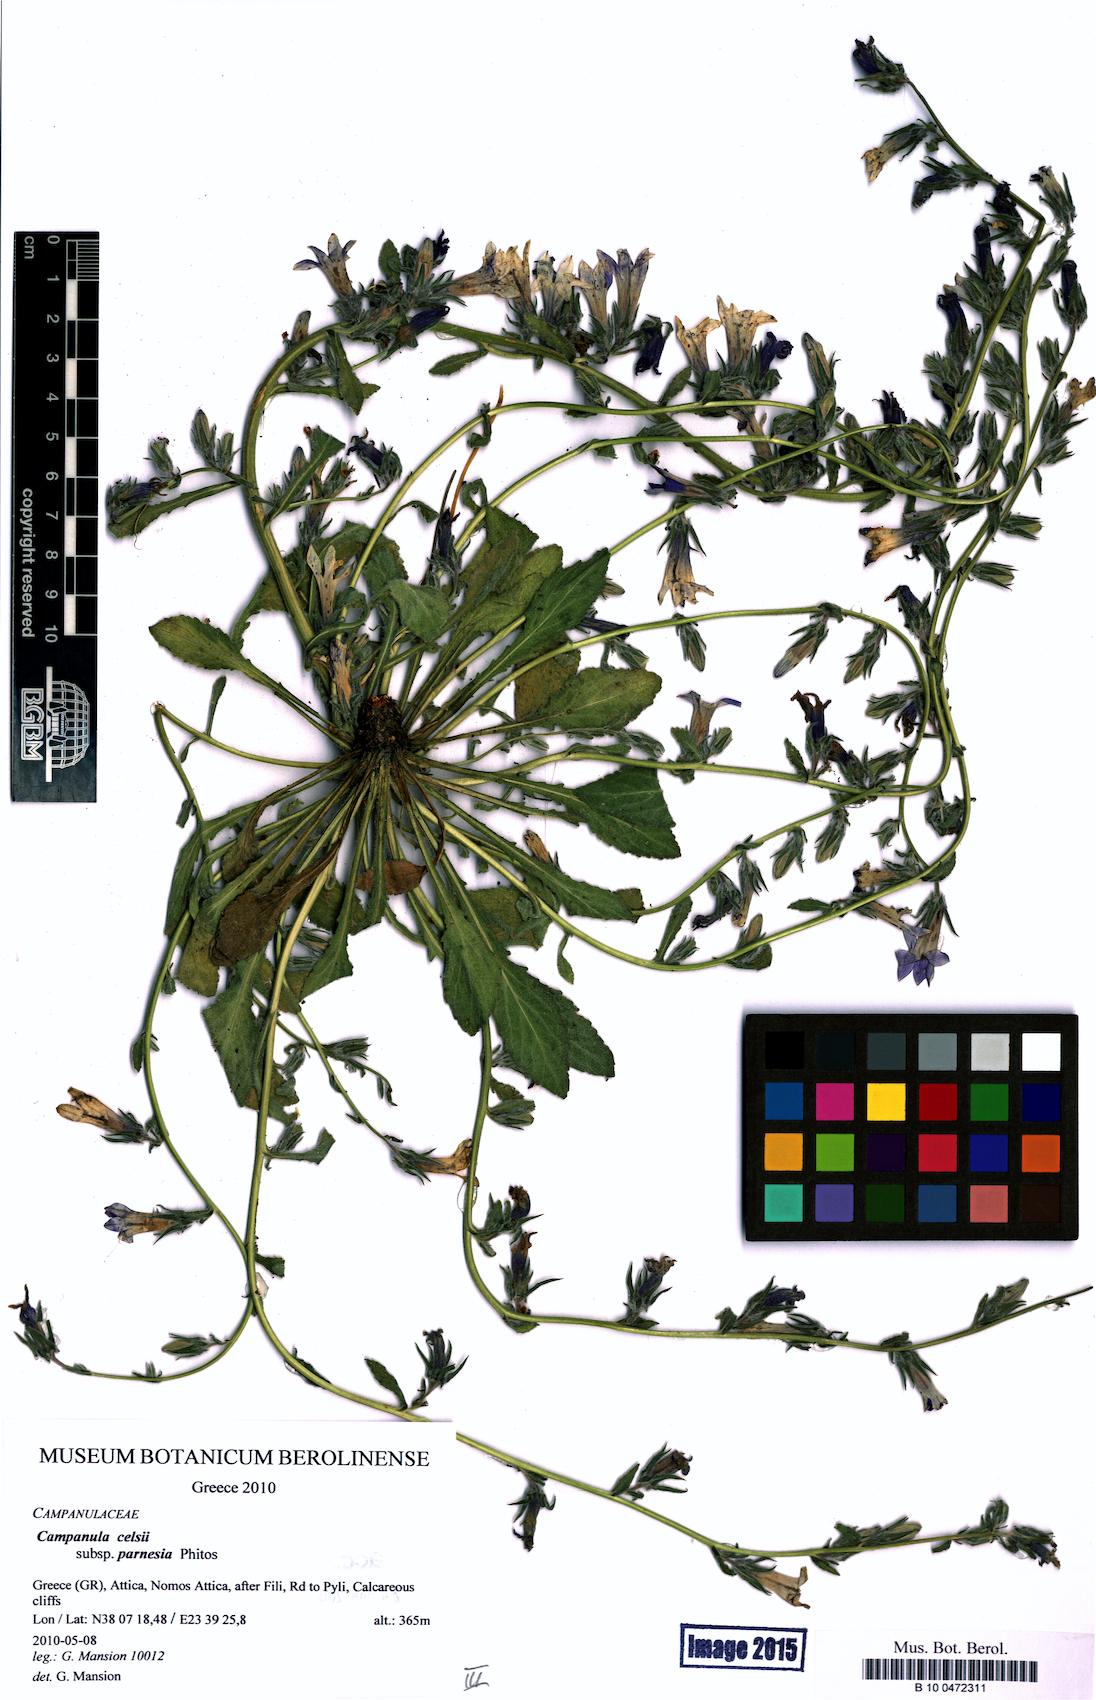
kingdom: Plantae
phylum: Tracheophyta
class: Magnoliopsida
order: Asterales
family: Campanulaceae
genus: Campanula
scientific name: Campanula celsii
